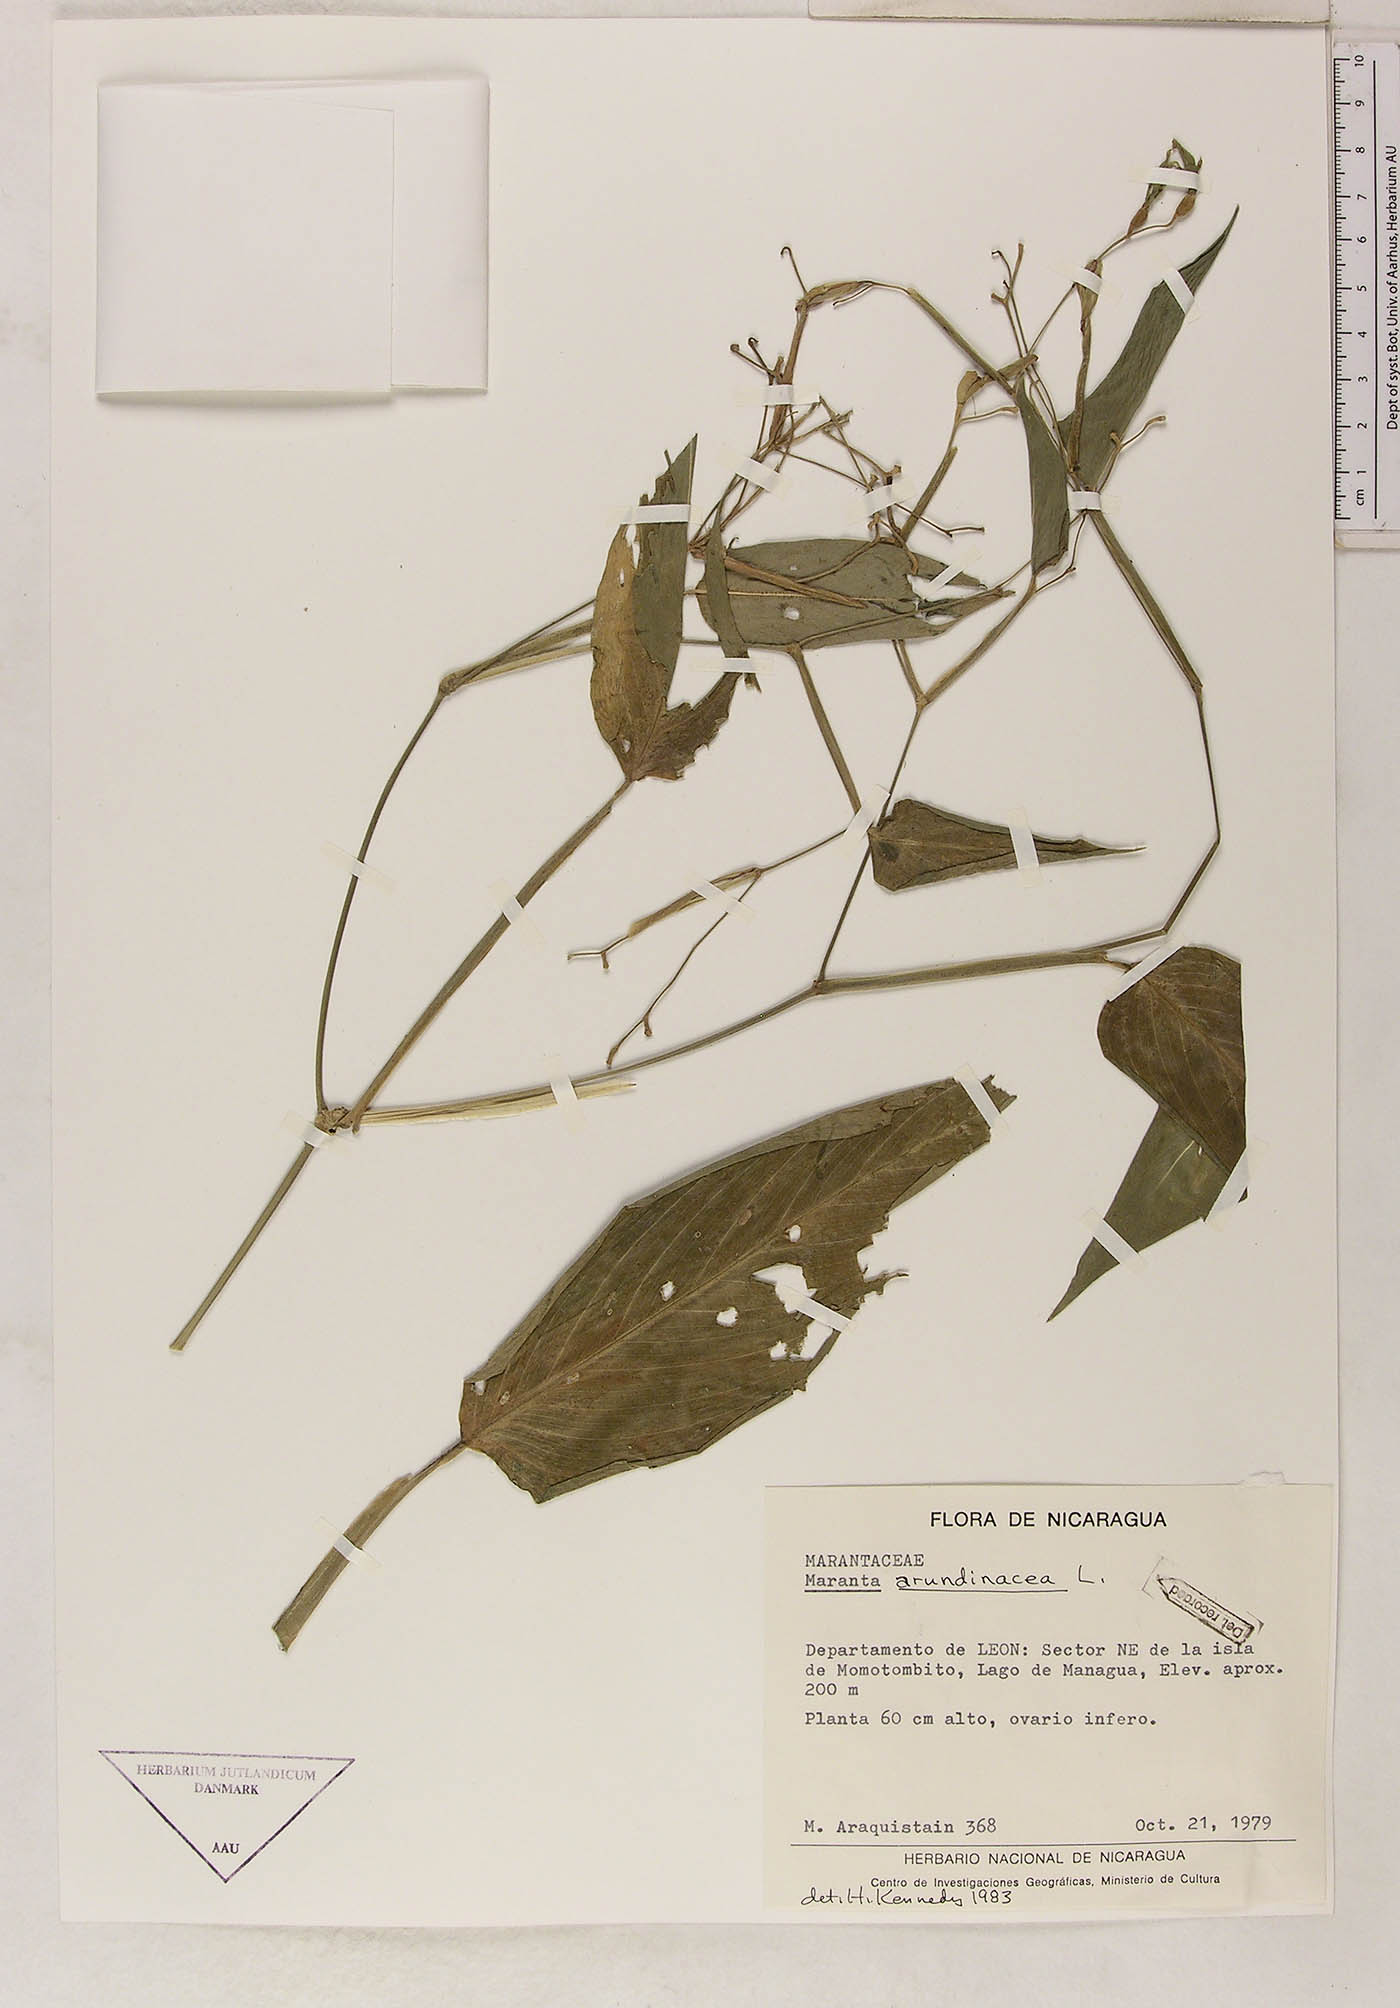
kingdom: Plantae
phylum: Tracheophyta
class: Liliopsida
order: Zingiberales
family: Marantaceae
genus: Maranta
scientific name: Maranta arundinacea
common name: Arrowroot
